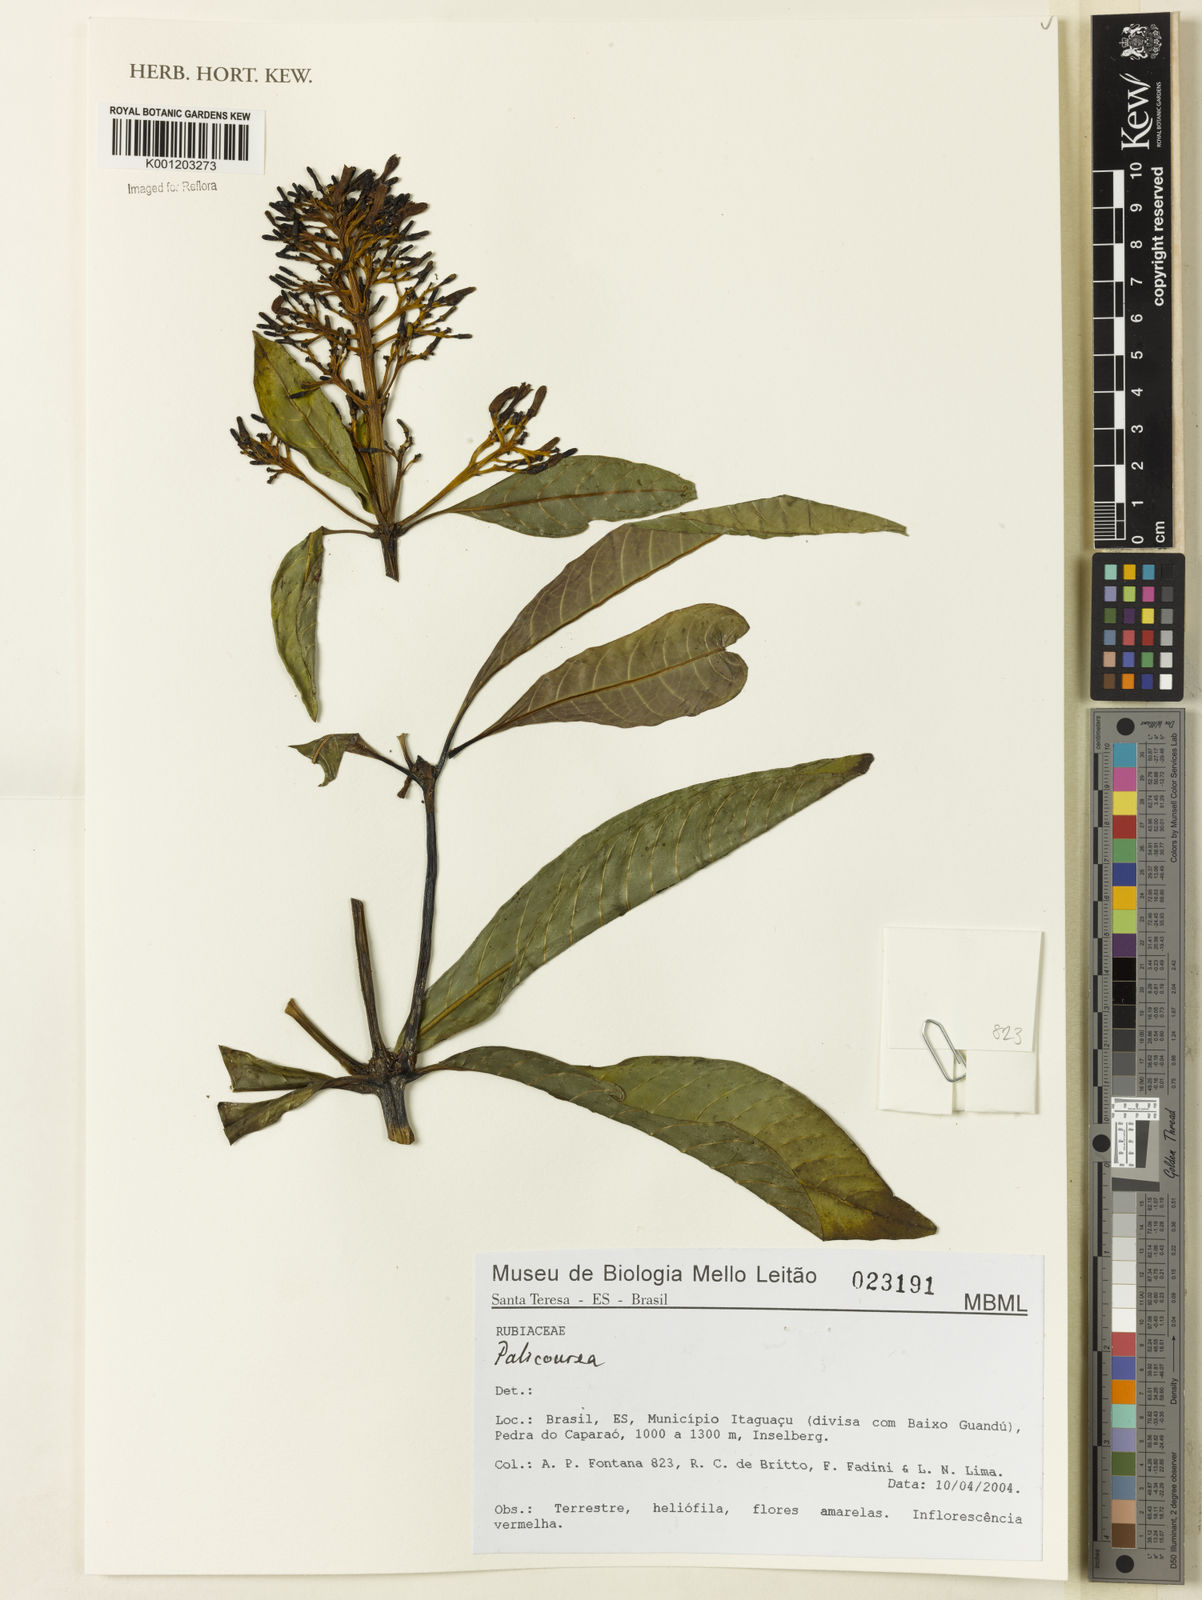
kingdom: Plantae
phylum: Tracheophyta
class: Magnoliopsida
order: Gentianales
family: Rubiaceae
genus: Palicourea
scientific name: Palicourea
